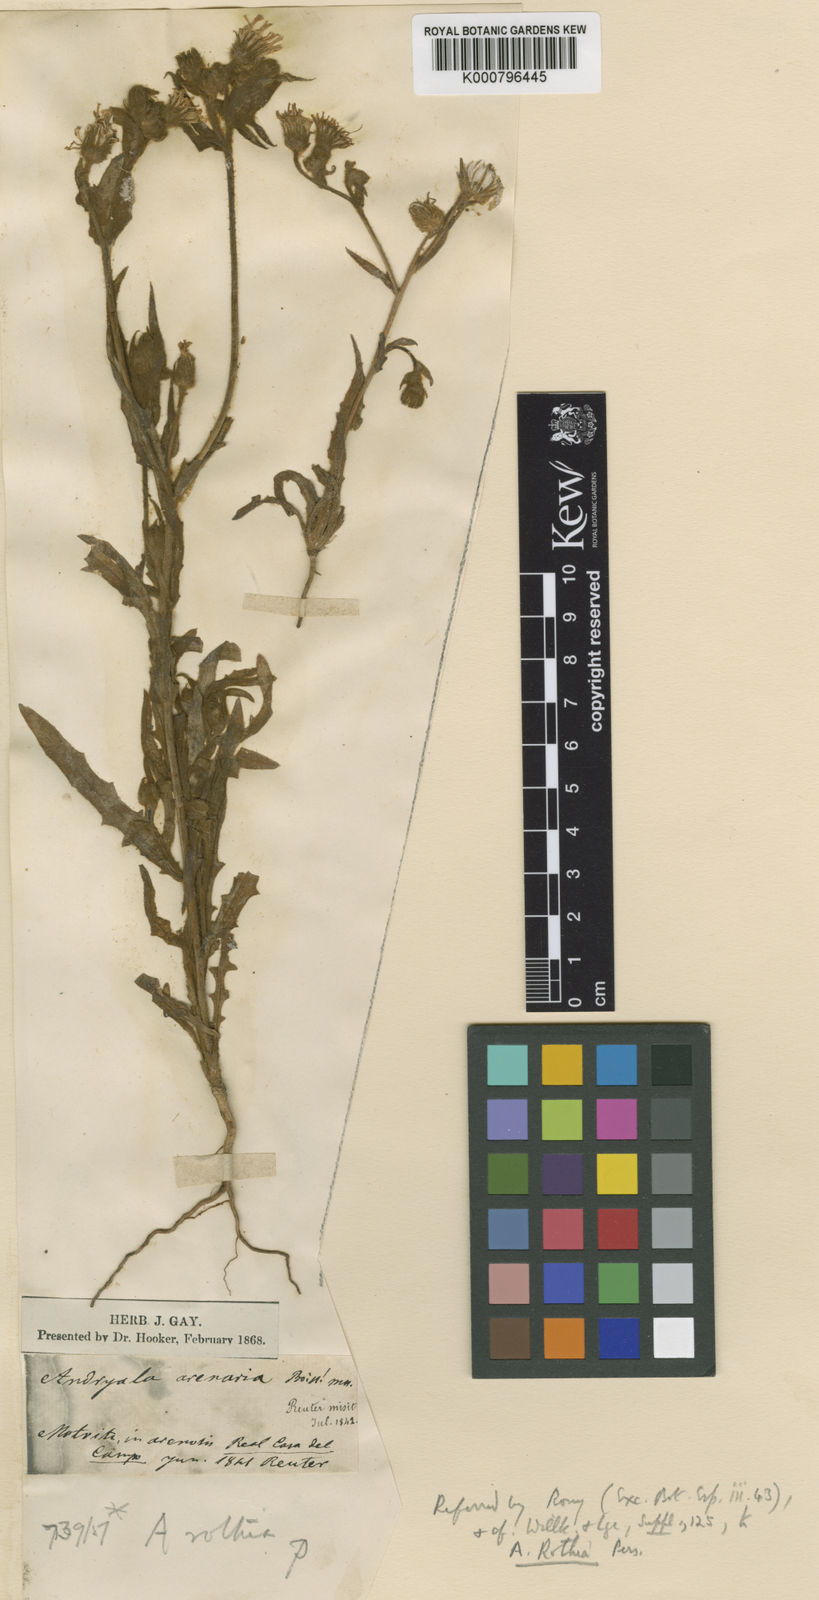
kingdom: Plantae
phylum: Tracheophyta
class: Magnoliopsida
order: Asterales
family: Asteraceae
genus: Andryala
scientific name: Andryala rothia
